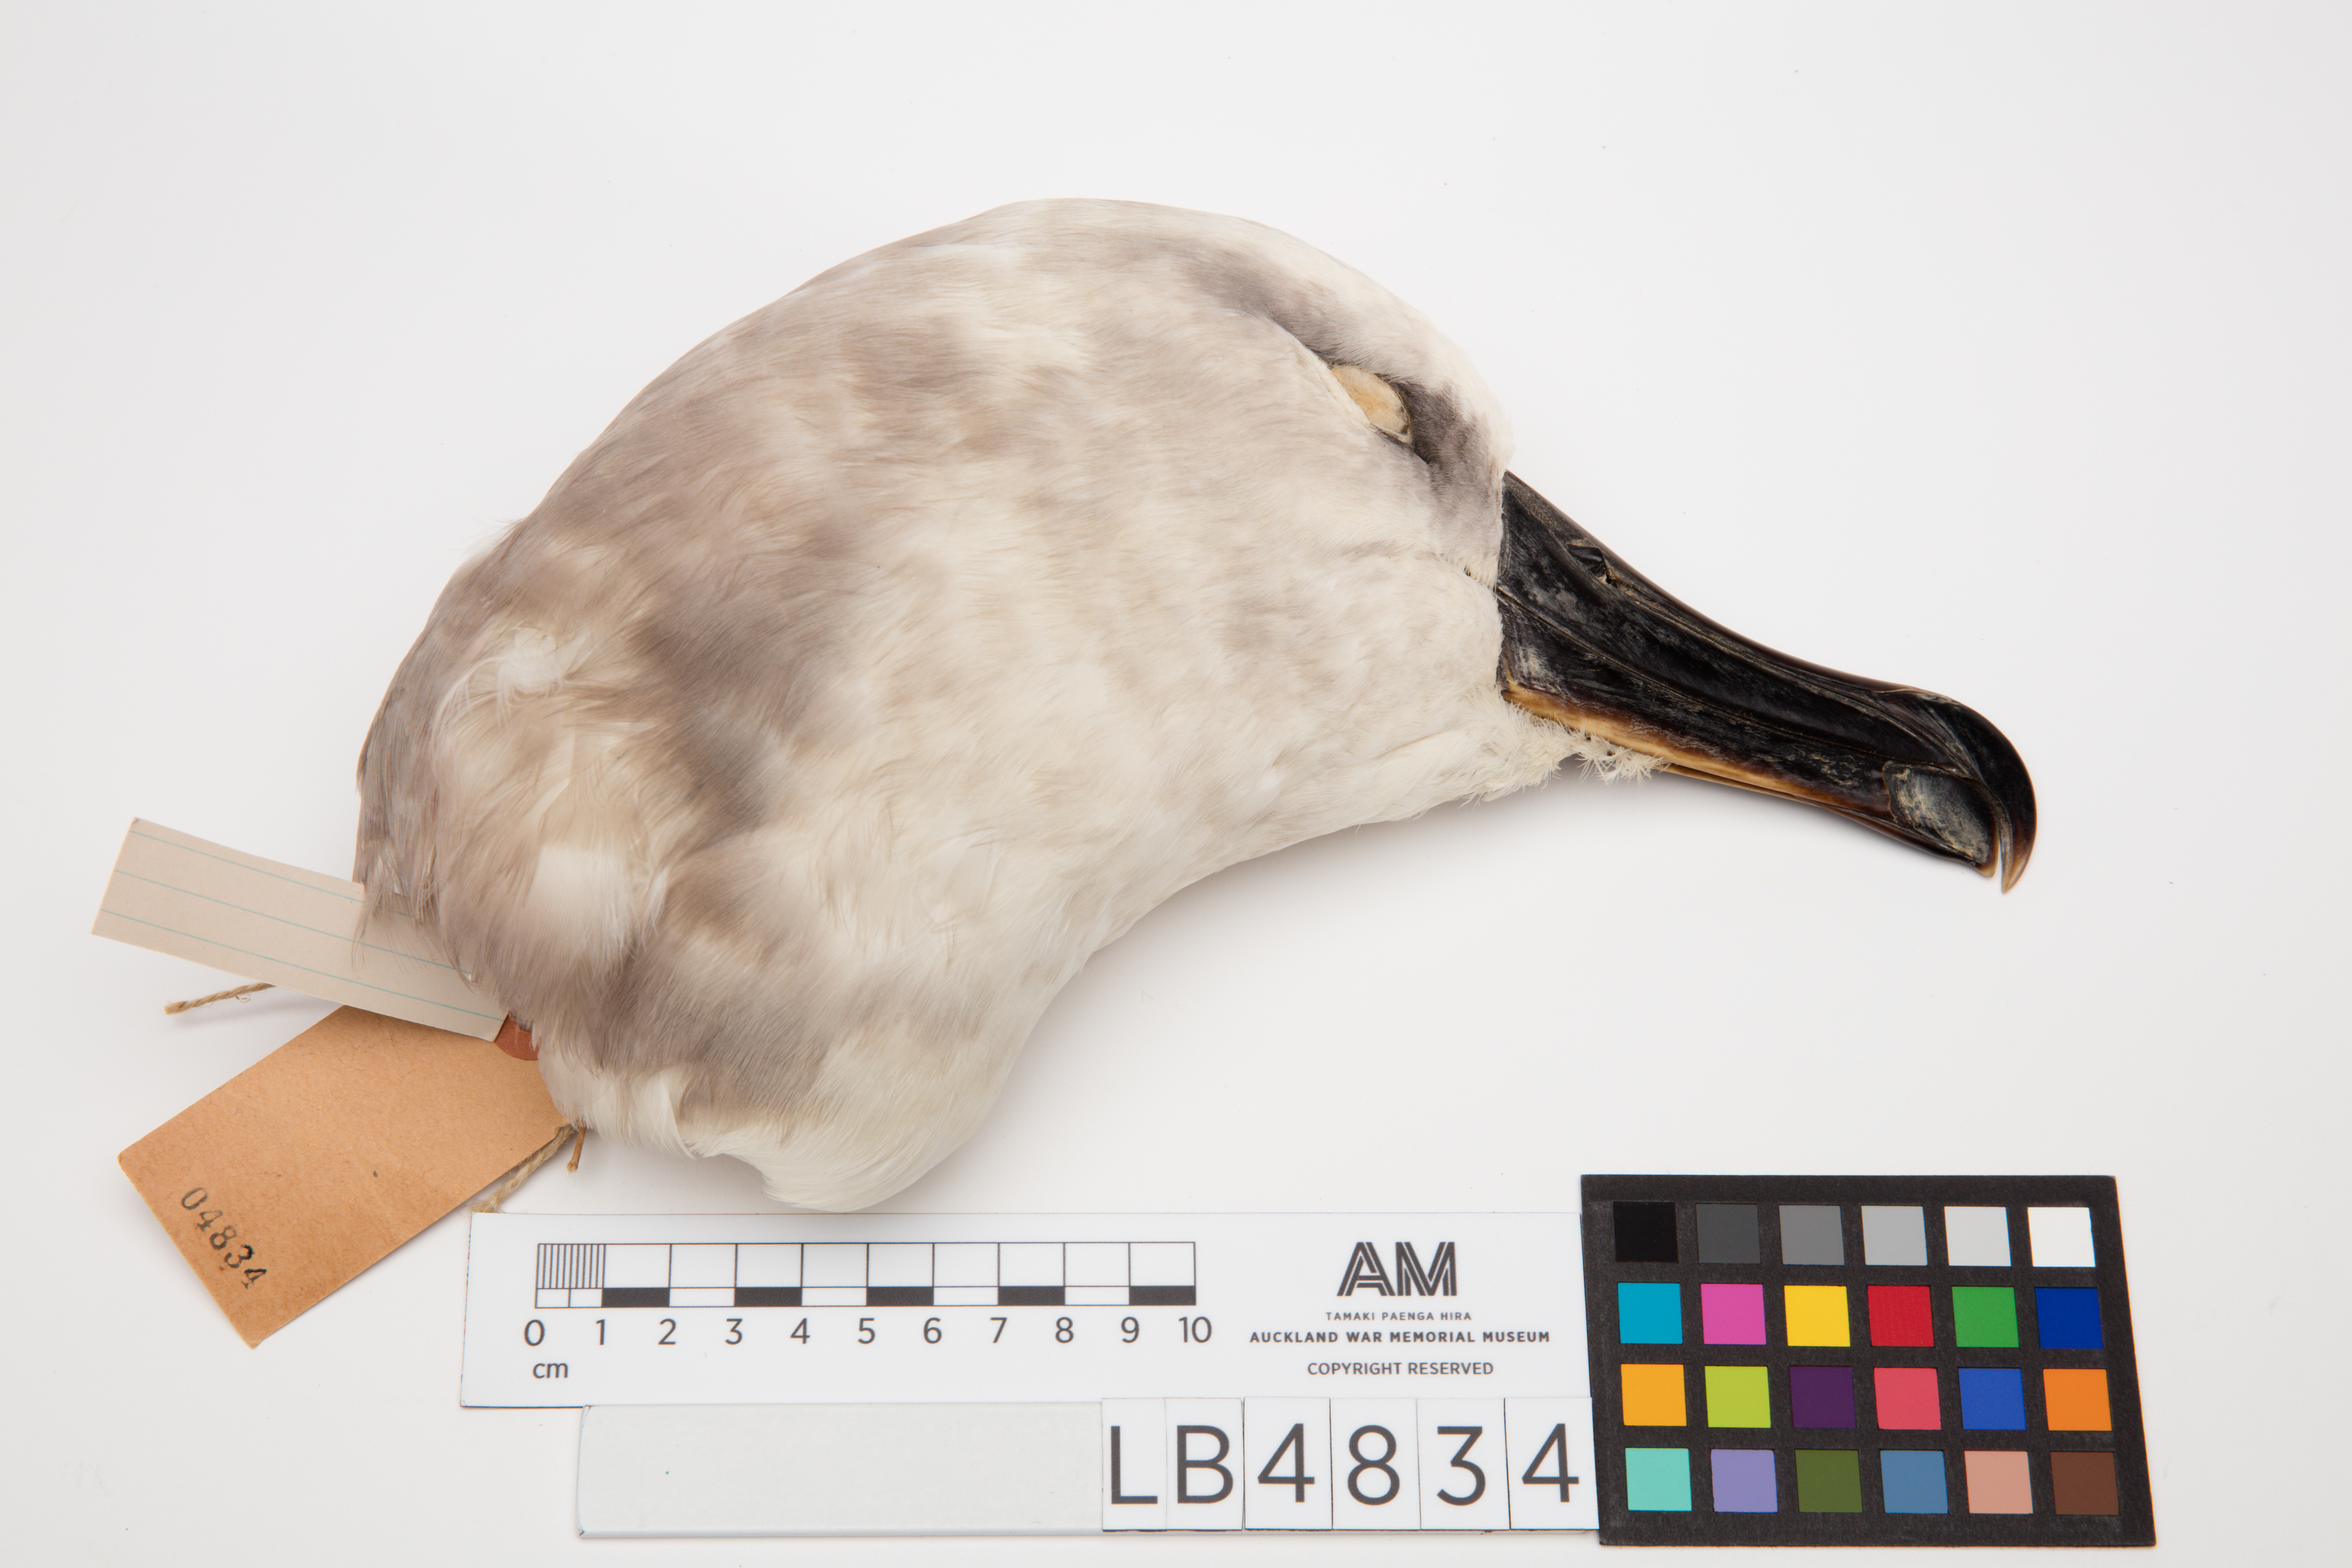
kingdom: Animalia
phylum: Chordata
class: Aves
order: Procellariiformes
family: Diomedeidae
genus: Thalassarche
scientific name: Thalassarche chrysostoma
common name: Grey-headed albatross
